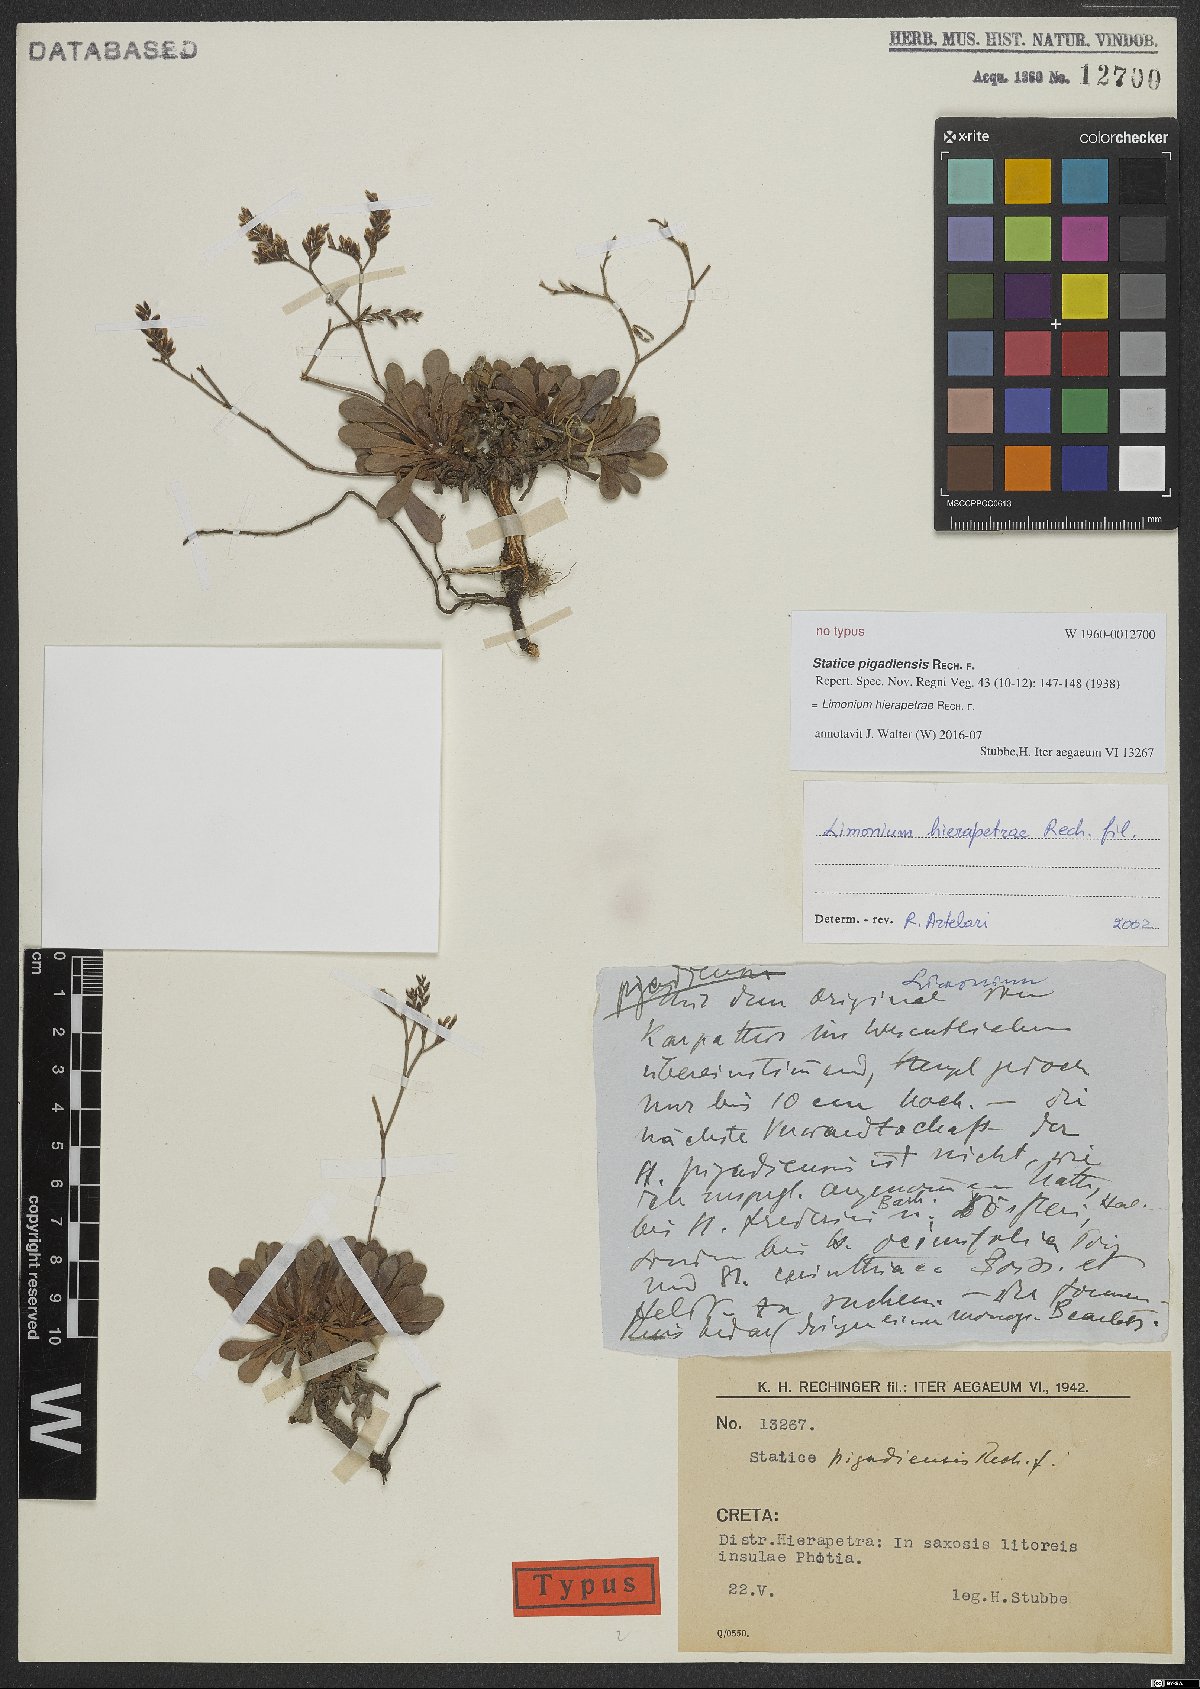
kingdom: Plantae
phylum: Tracheophyta
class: Magnoliopsida
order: Caryophyllales
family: Plumbaginaceae
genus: Limonium
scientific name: Limonium hierapetrae
